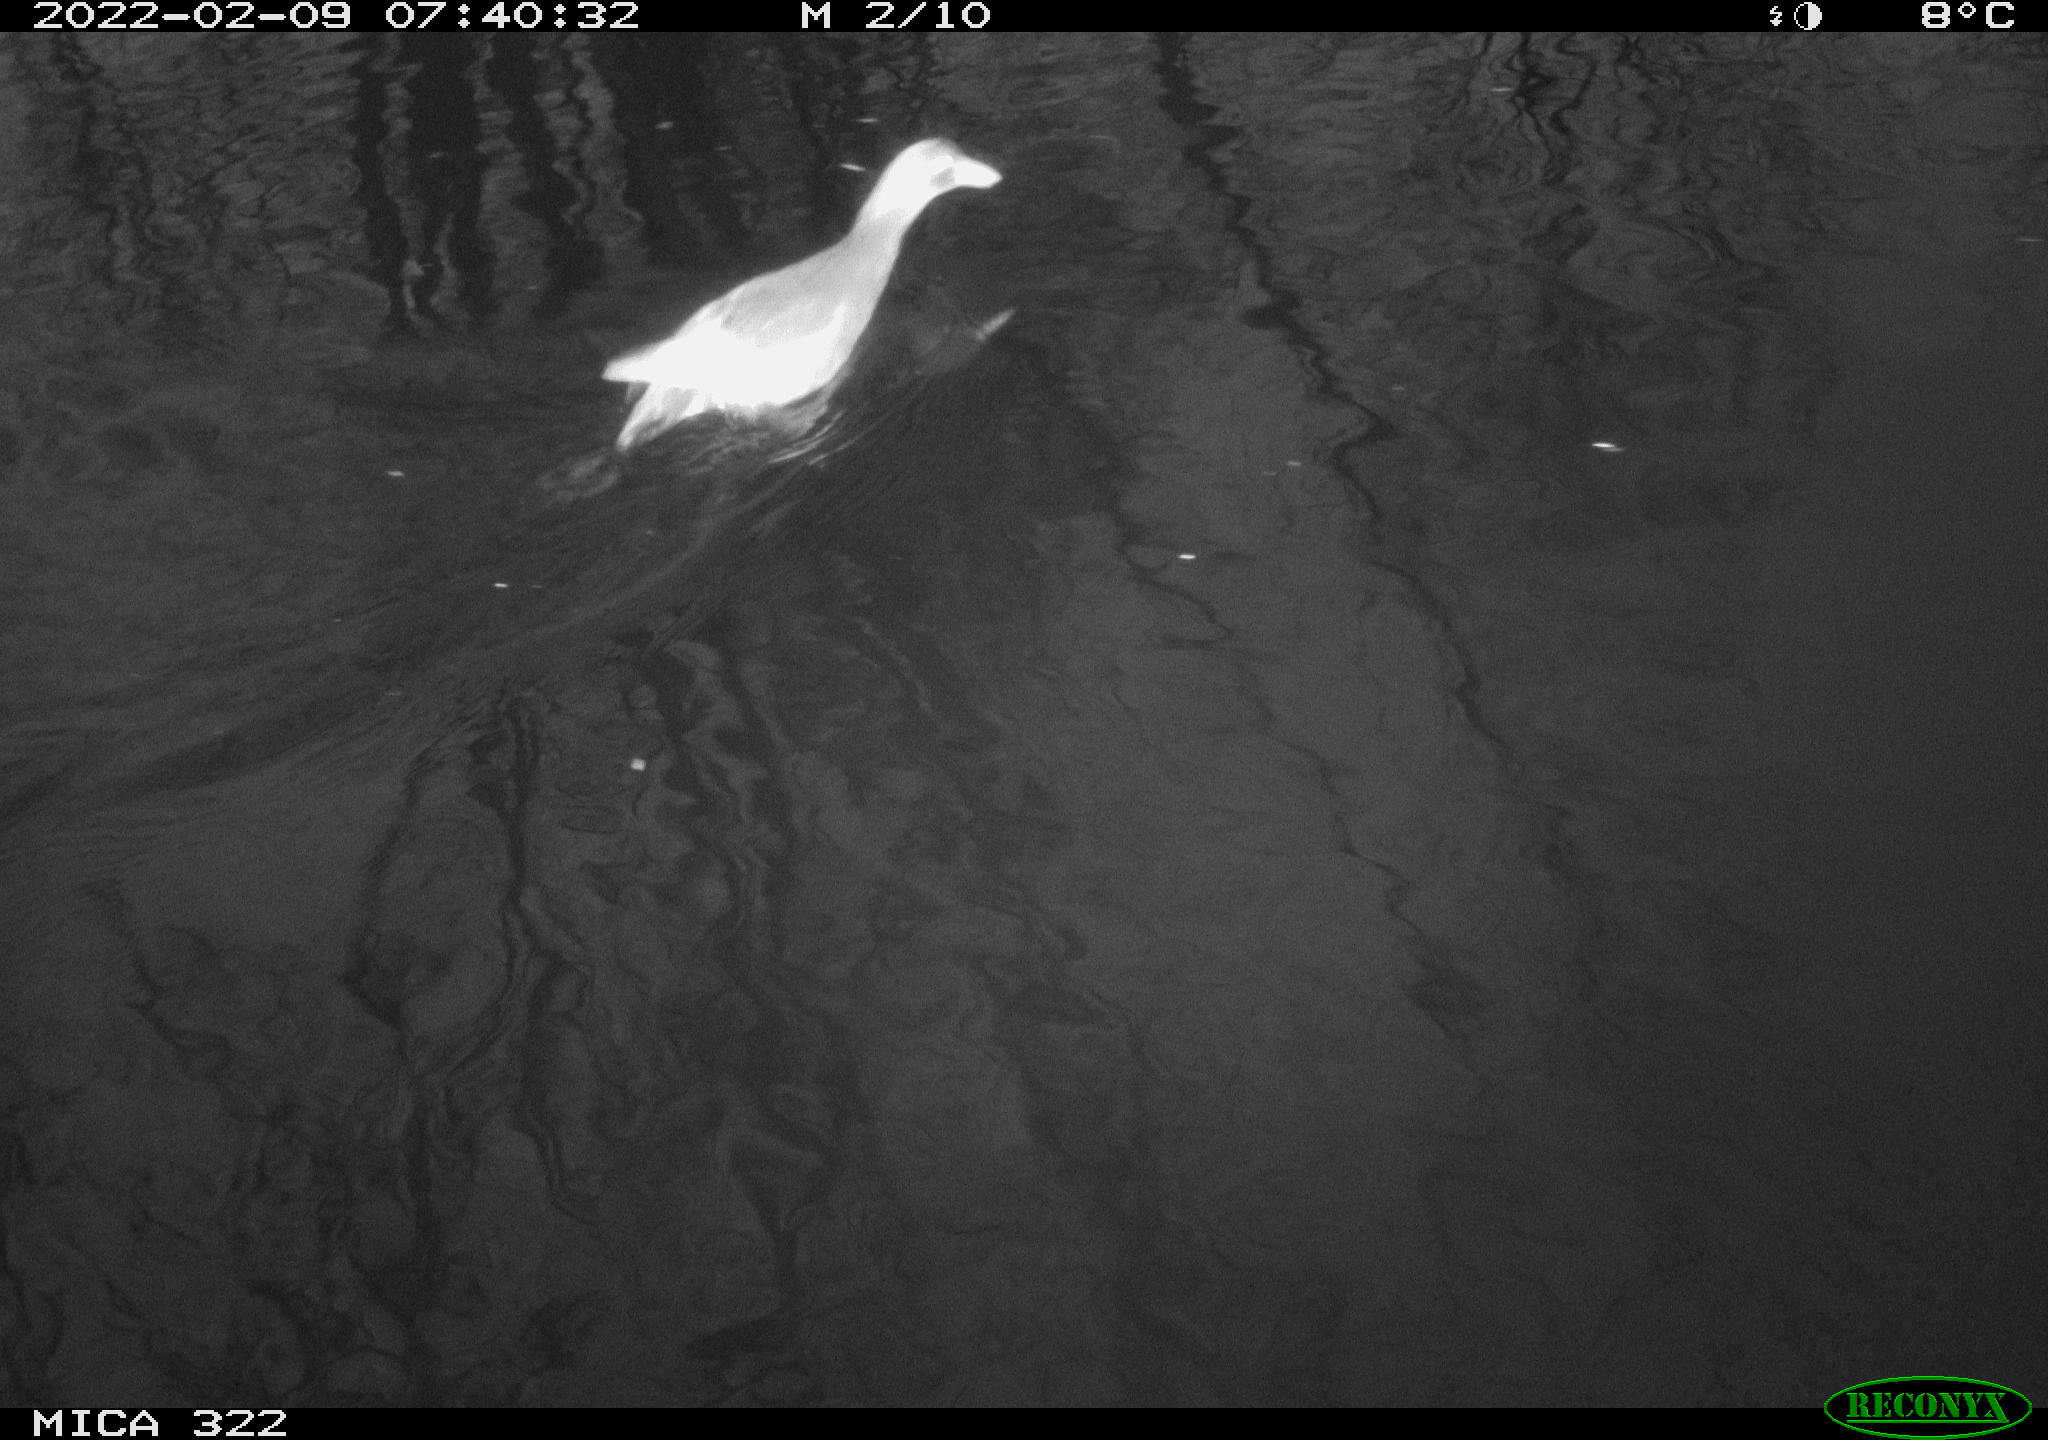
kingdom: Animalia
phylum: Chordata
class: Aves
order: Gruiformes
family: Rallidae
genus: Gallinula
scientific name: Gallinula chloropus
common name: Common moorhen
